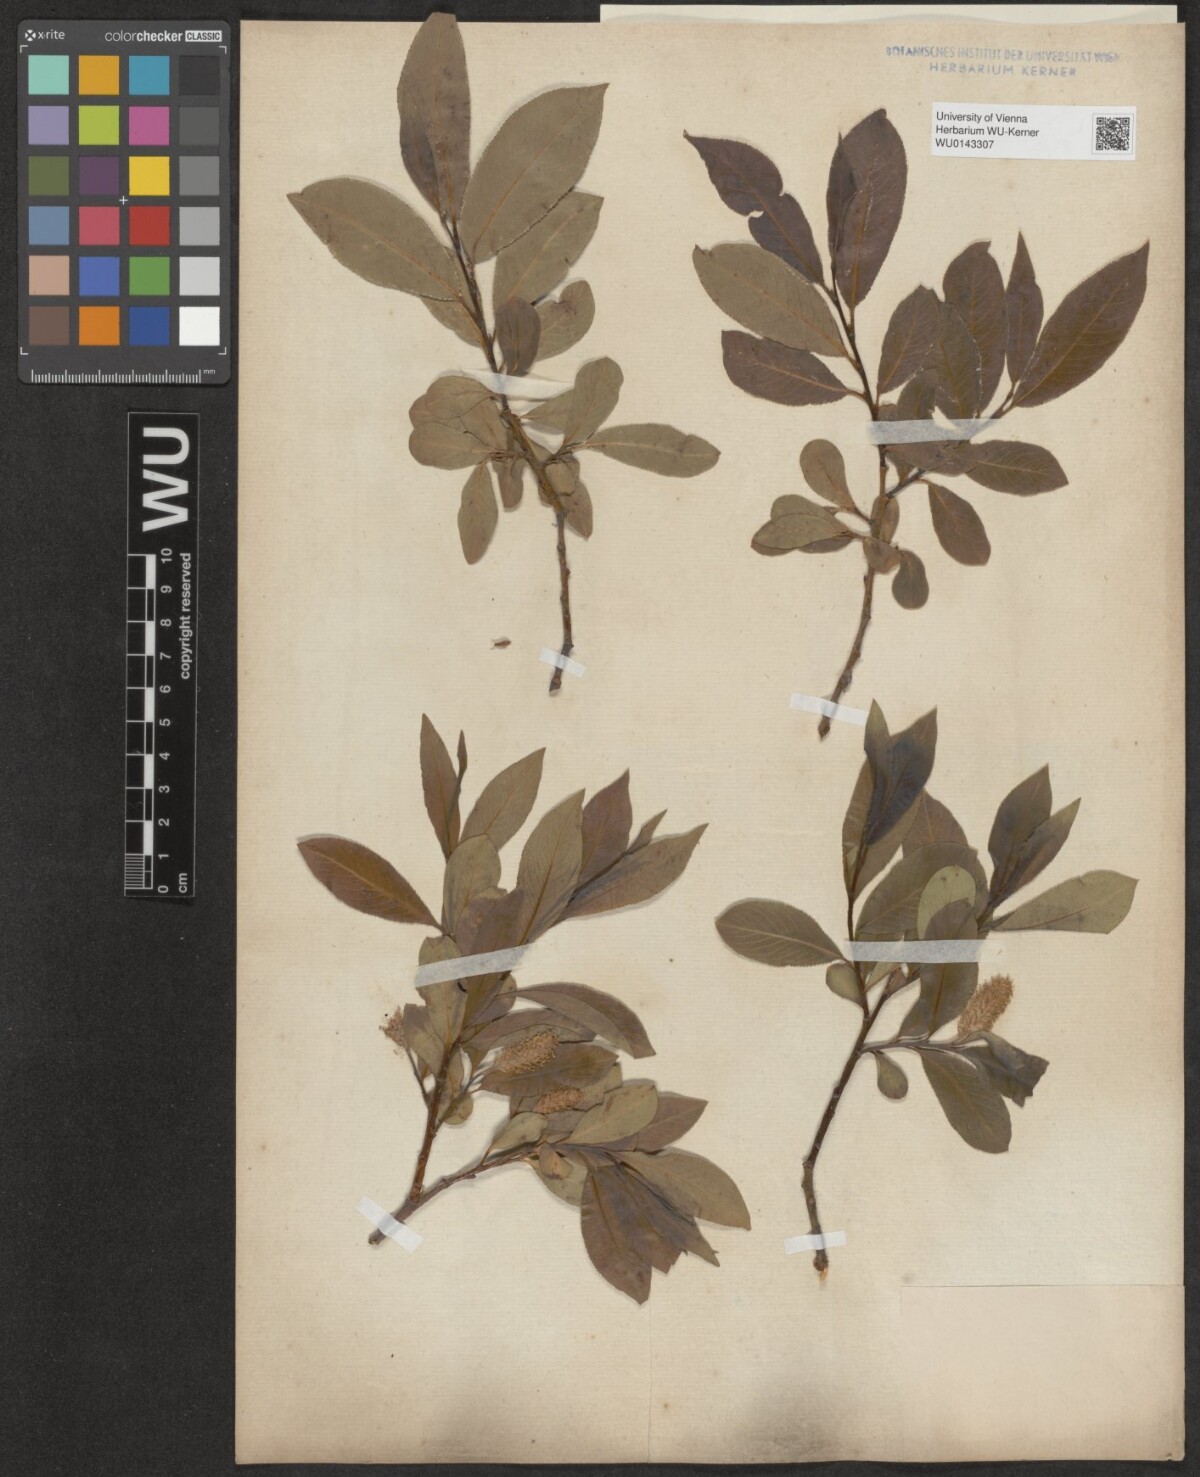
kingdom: Plantae
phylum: Tracheophyta
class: Magnoliopsida
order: Malpighiales
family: Salicaceae
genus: Salix
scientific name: Salix pentandra
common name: Bay willow
